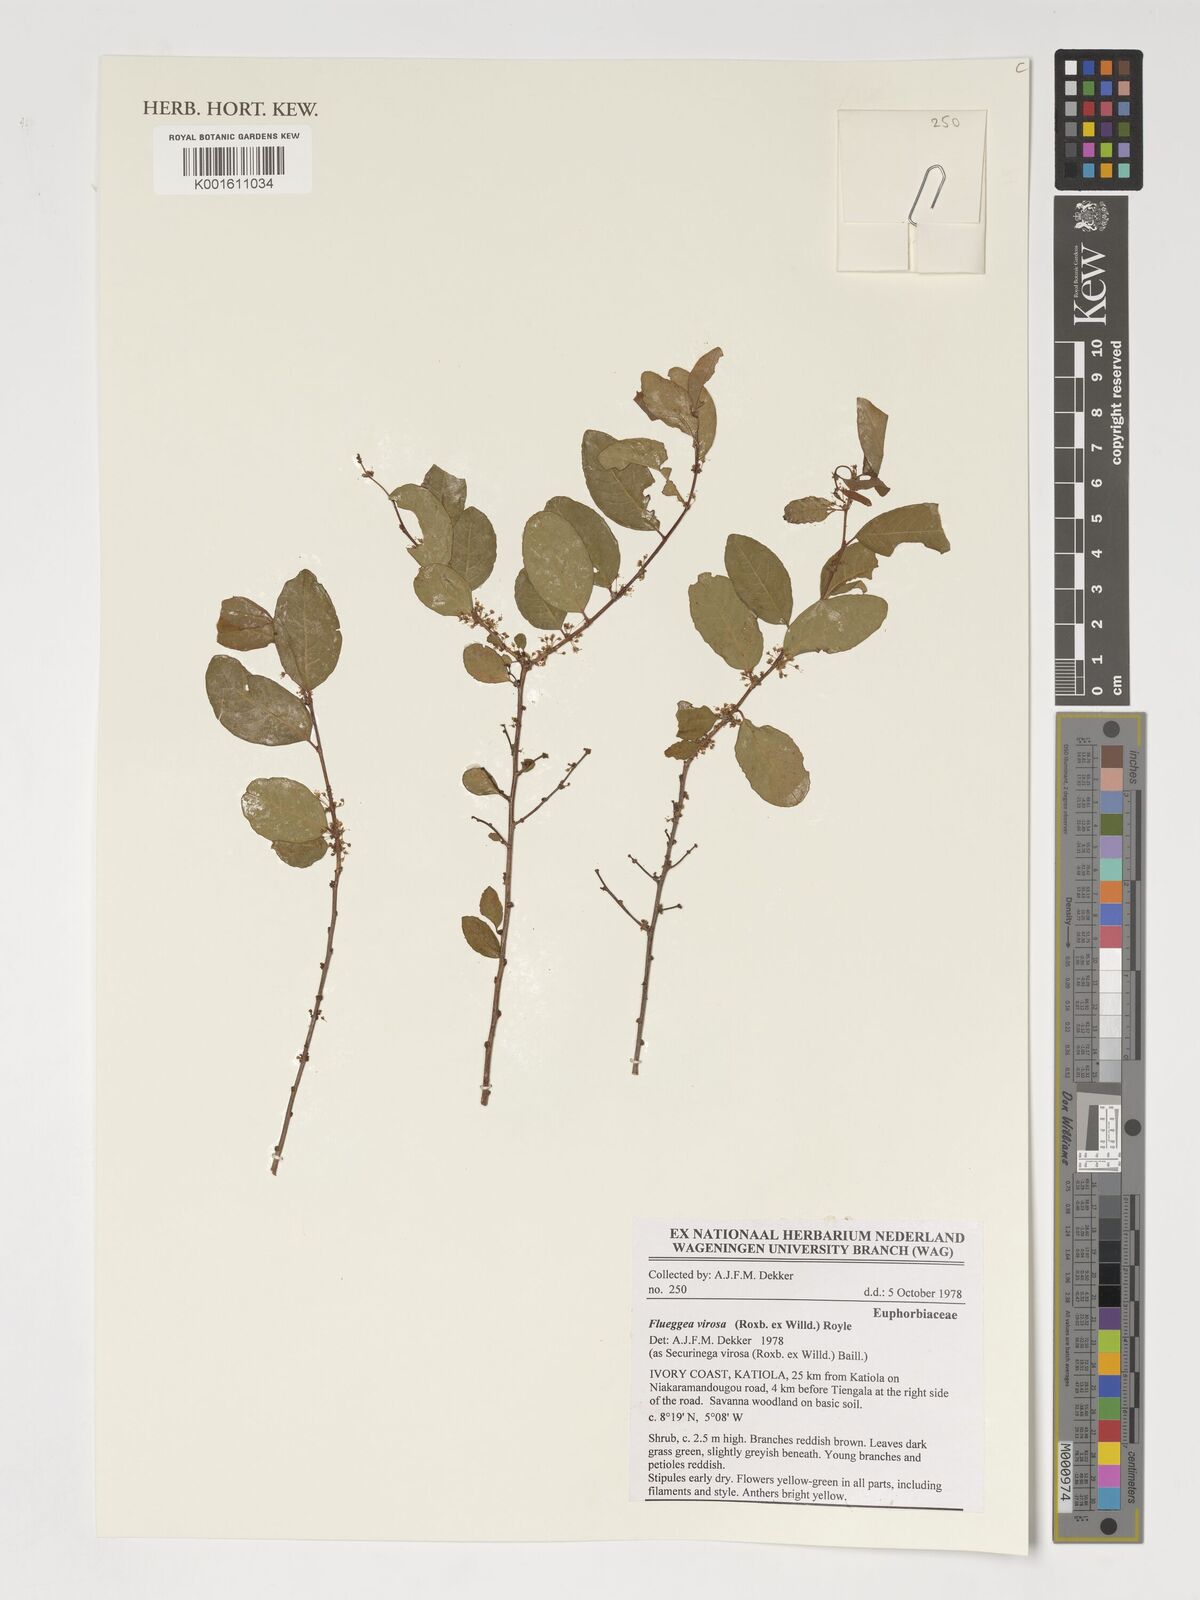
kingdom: Plantae
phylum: Tracheophyta
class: Magnoliopsida
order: Malpighiales
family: Phyllanthaceae
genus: Flueggea
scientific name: Flueggea virosa
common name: Common bushweed
